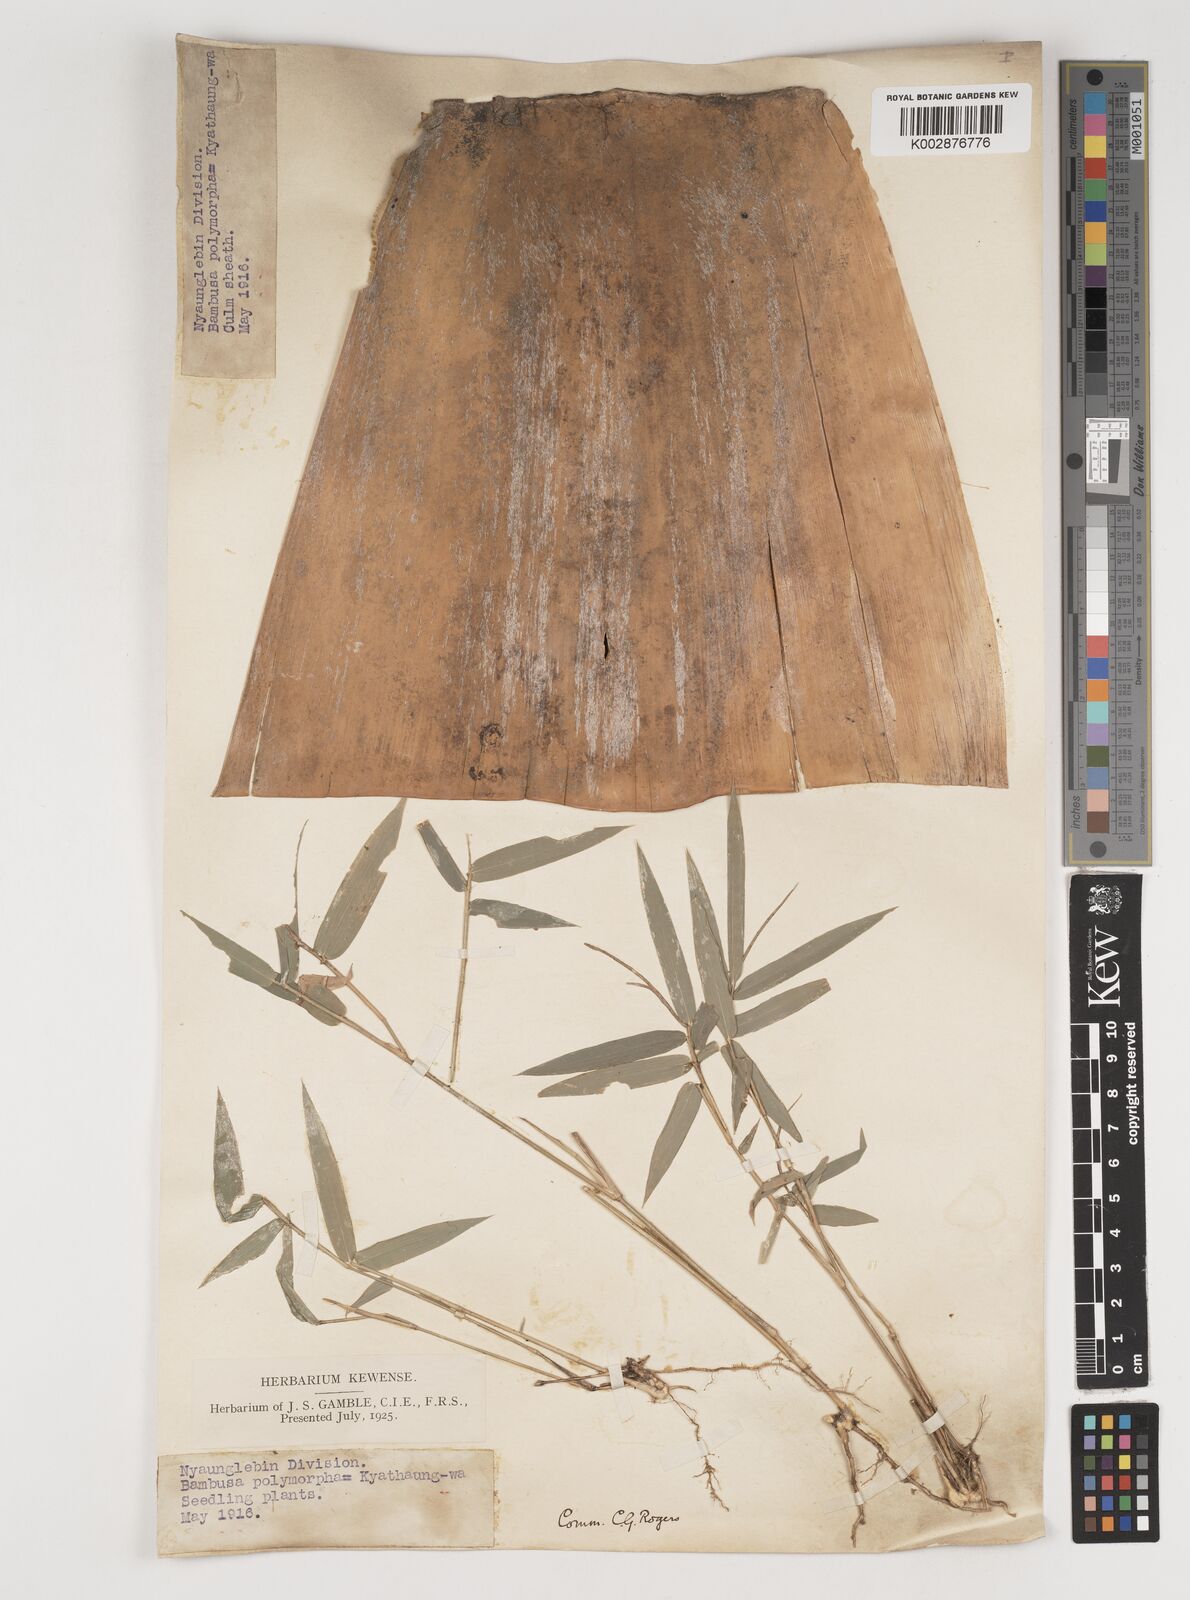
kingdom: Plantae
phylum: Tracheophyta
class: Liliopsida
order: Poales
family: Poaceae
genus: Bambusa
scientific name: Bambusa polymorpha
